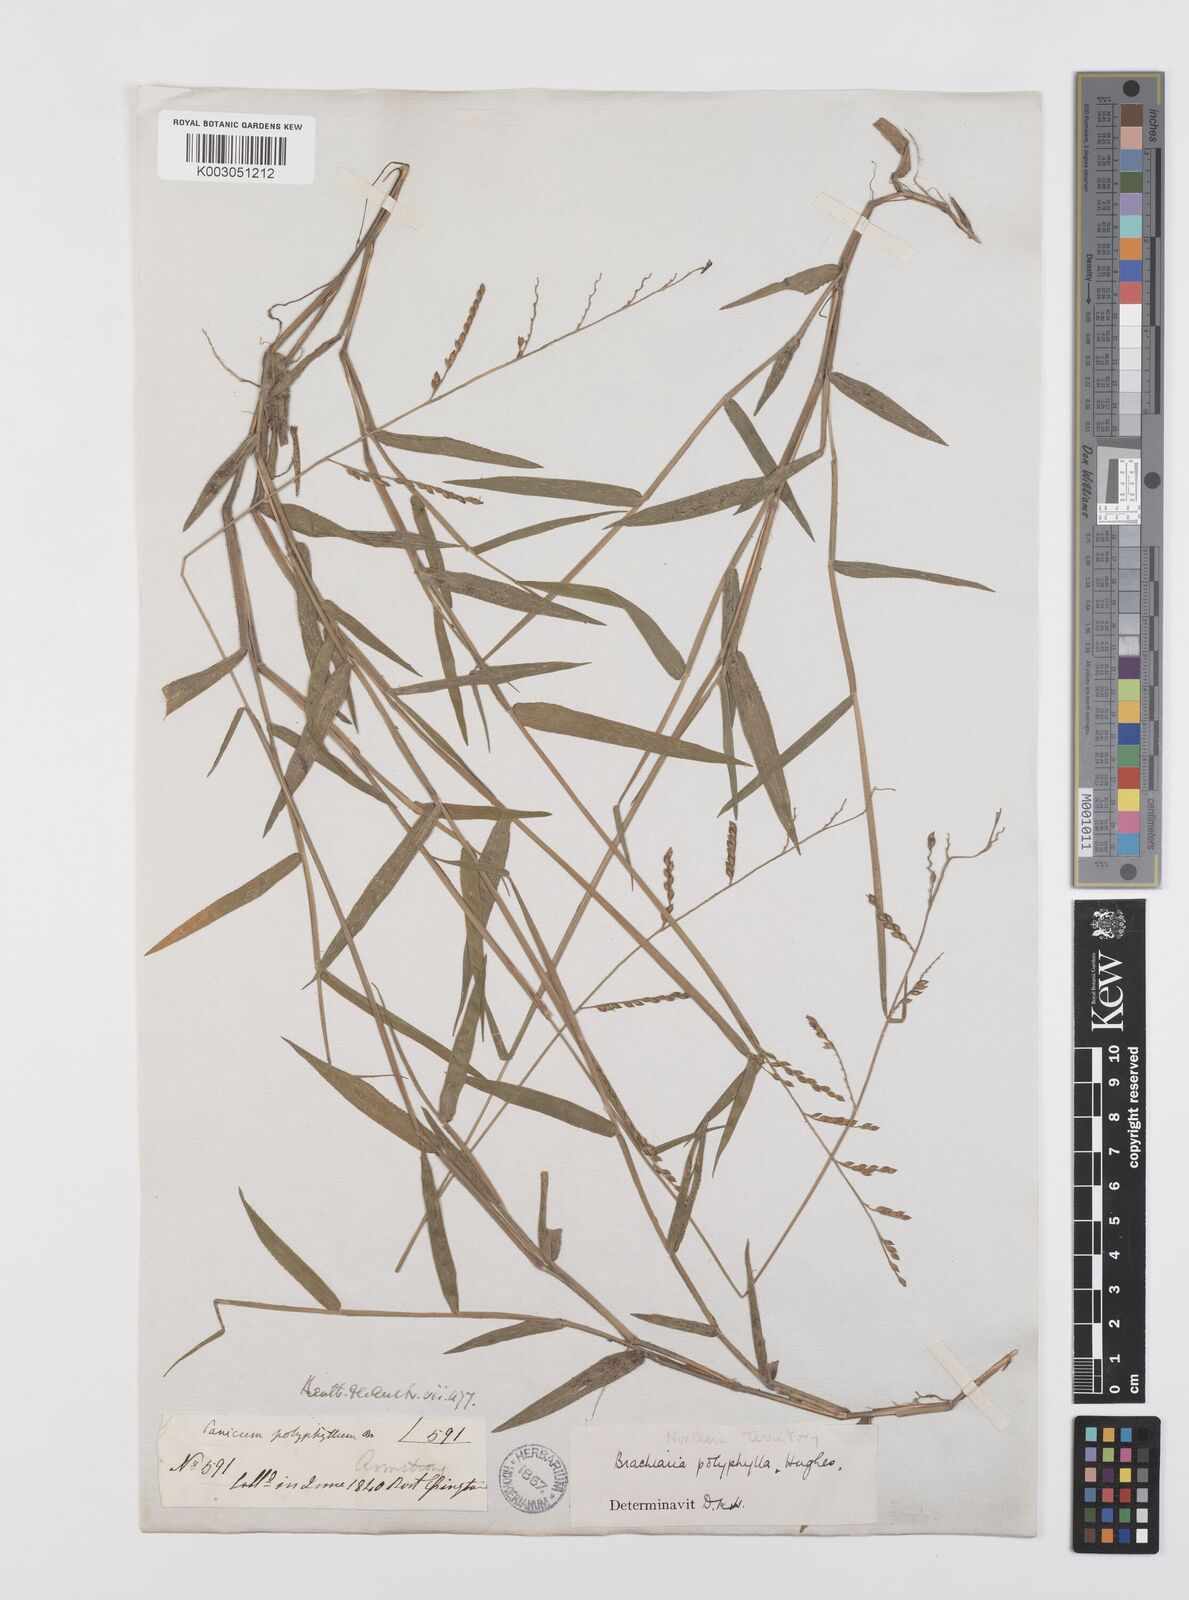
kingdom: Plantae
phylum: Tracheophyta
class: Liliopsida
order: Poales
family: Poaceae
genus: Urochloa
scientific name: Urochloa polyphylla
